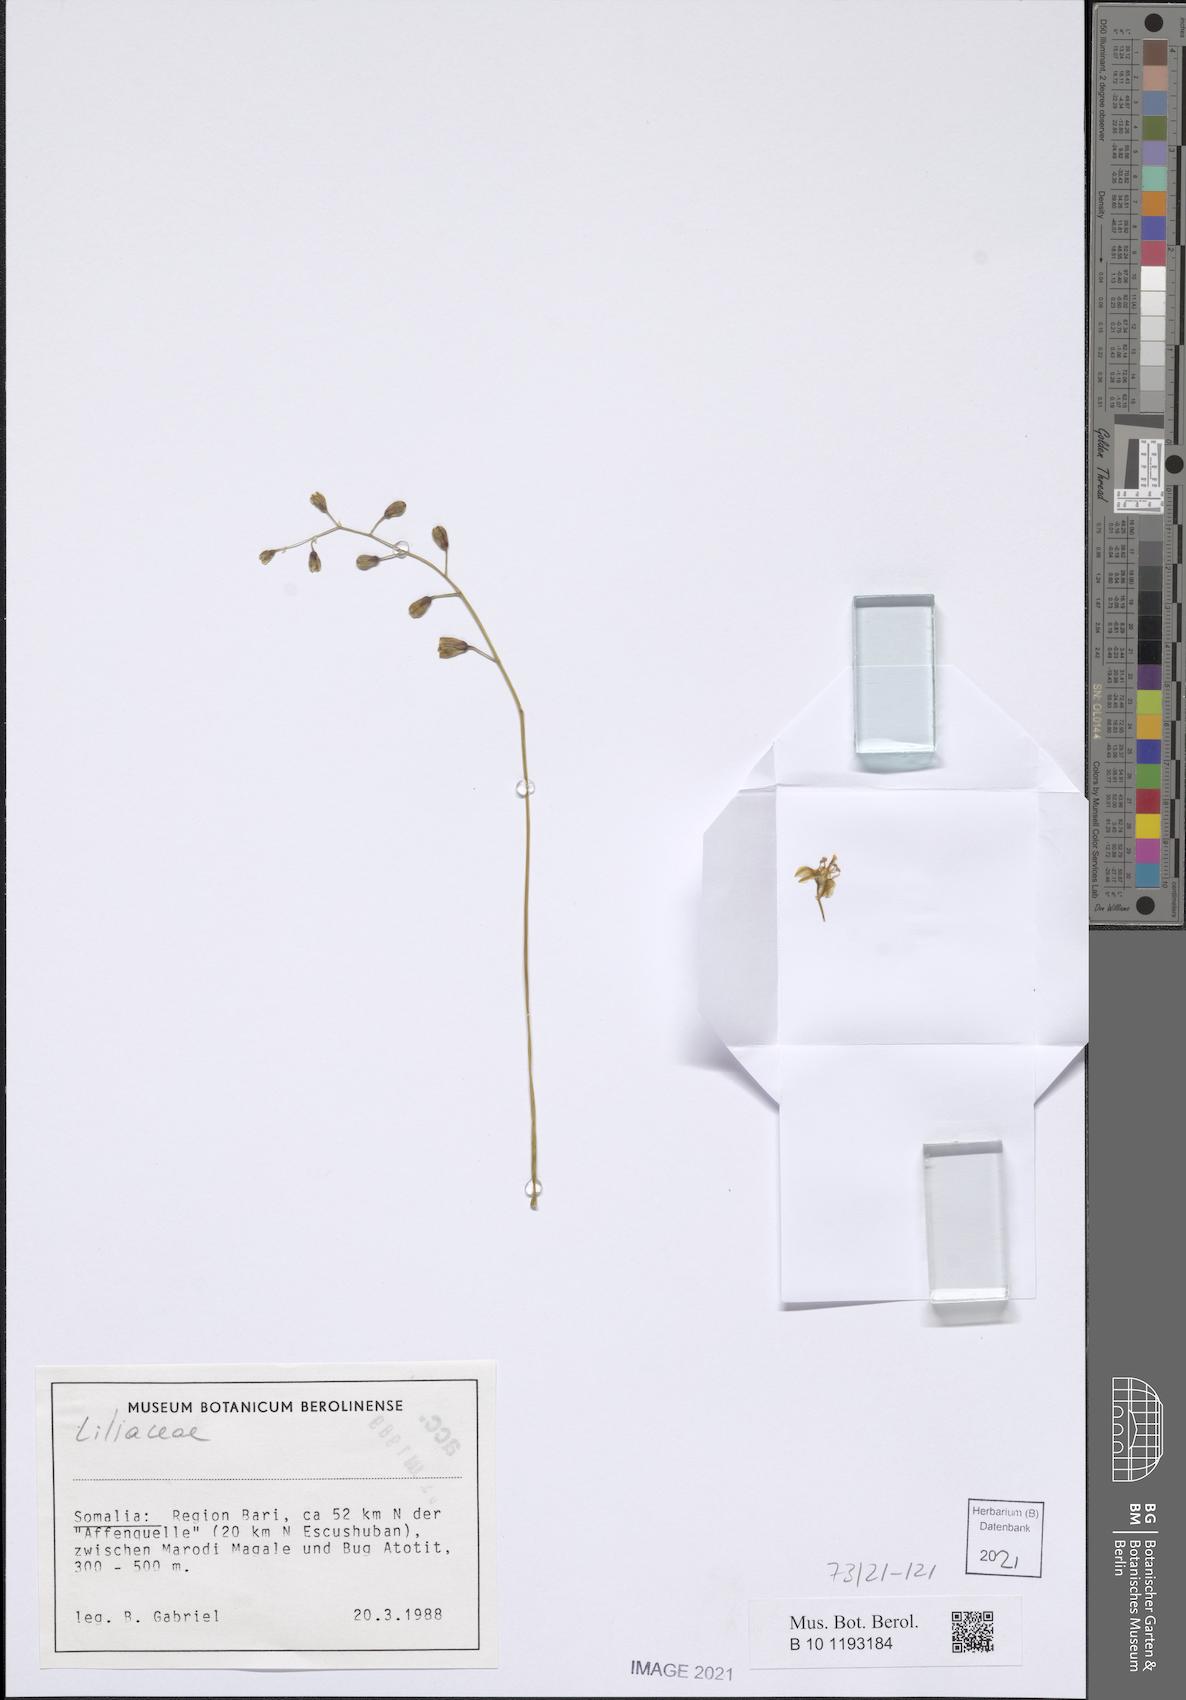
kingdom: Plantae
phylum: Tracheophyta
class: Liliopsida
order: Asparagales
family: Asparagaceae
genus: Albuca
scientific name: Albuca abyssinica
